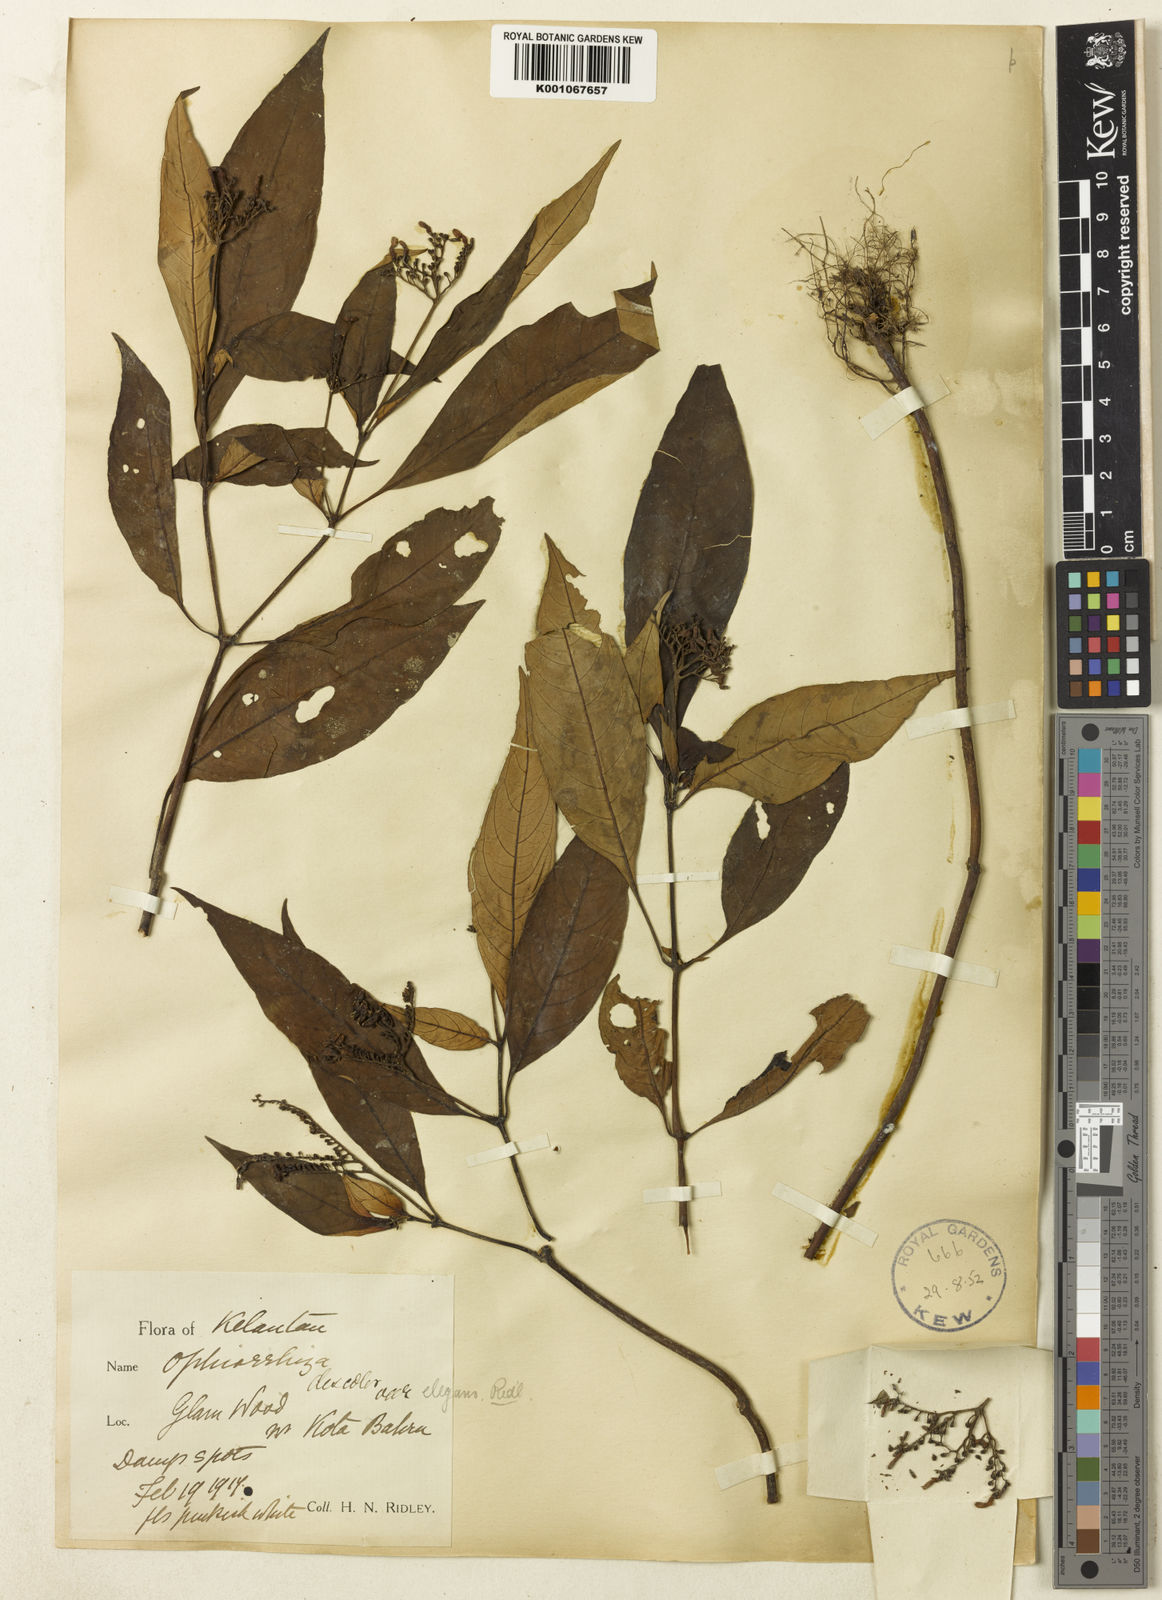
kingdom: Plantae
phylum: Tracheophyta
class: Magnoliopsida
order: Gentianales
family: Rubiaceae
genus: Ophiorrhiza
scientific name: Ophiorrhiza discolor
